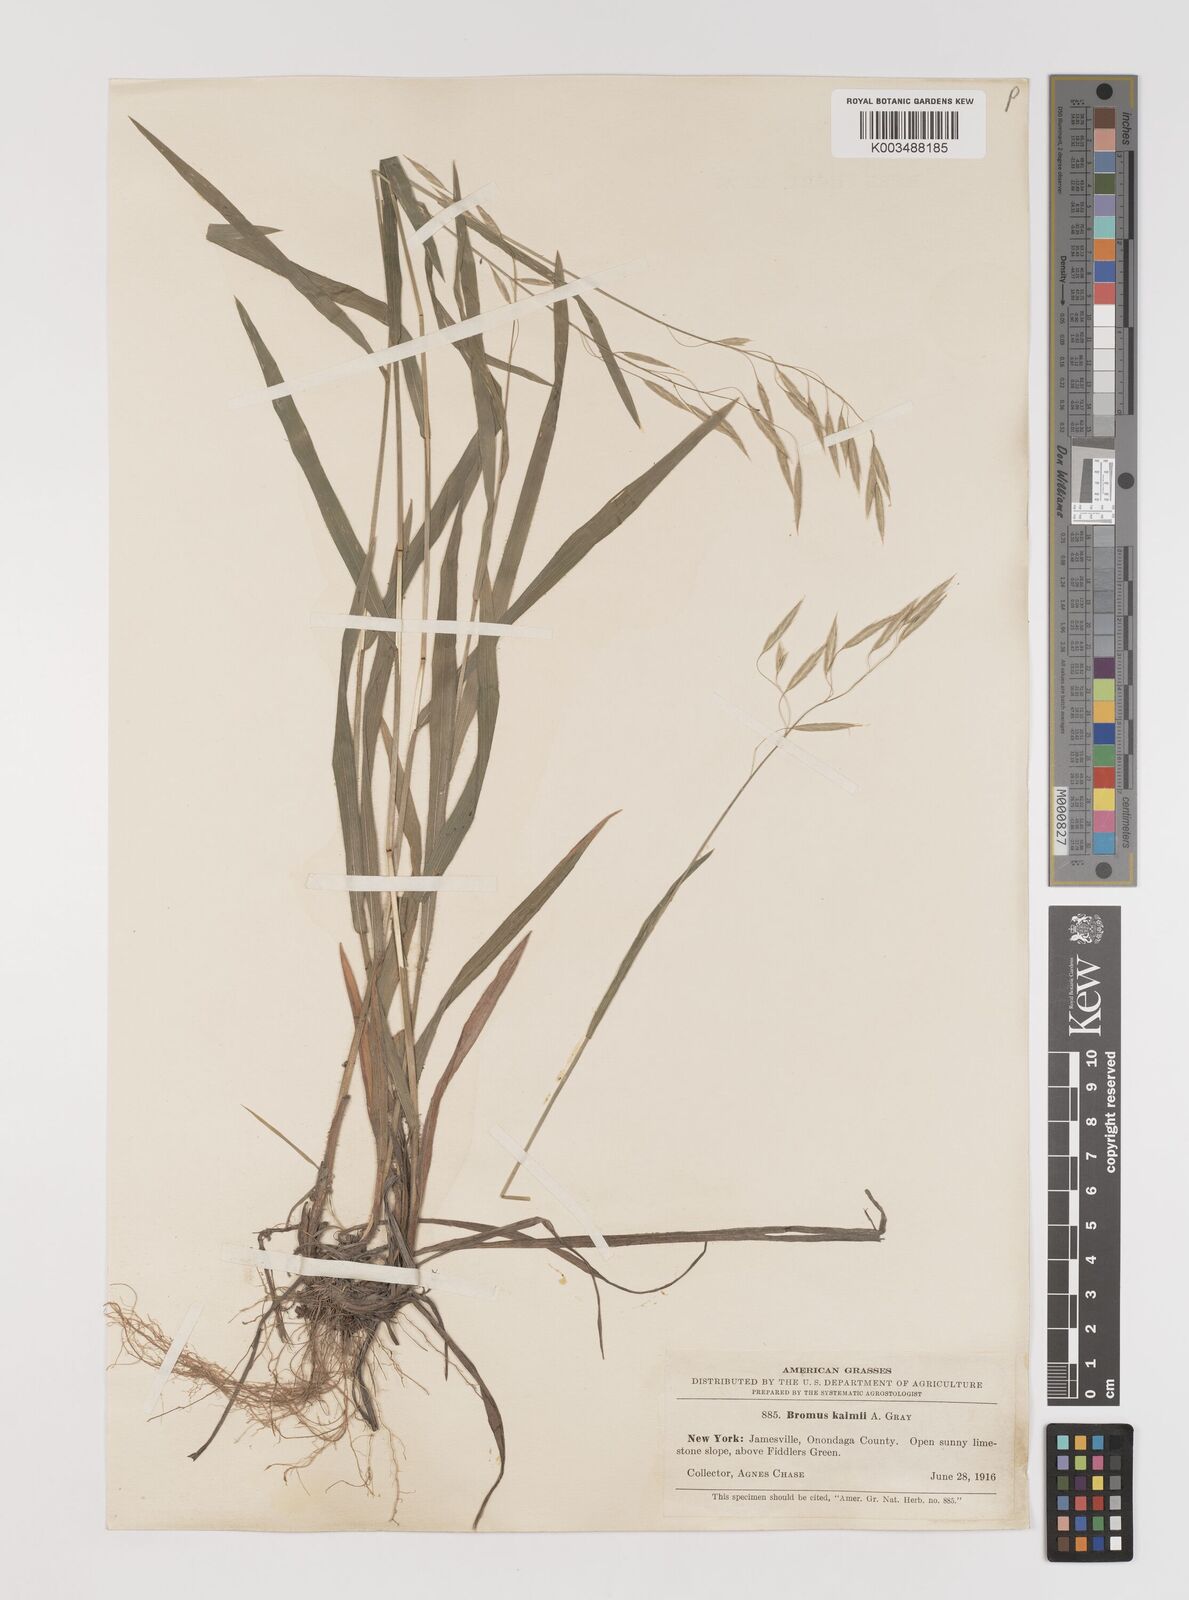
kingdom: Plantae
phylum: Tracheophyta
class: Liliopsida
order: Poales
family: Poaceae
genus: Bromus
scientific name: Bromus kalmii
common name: Kalm brome
